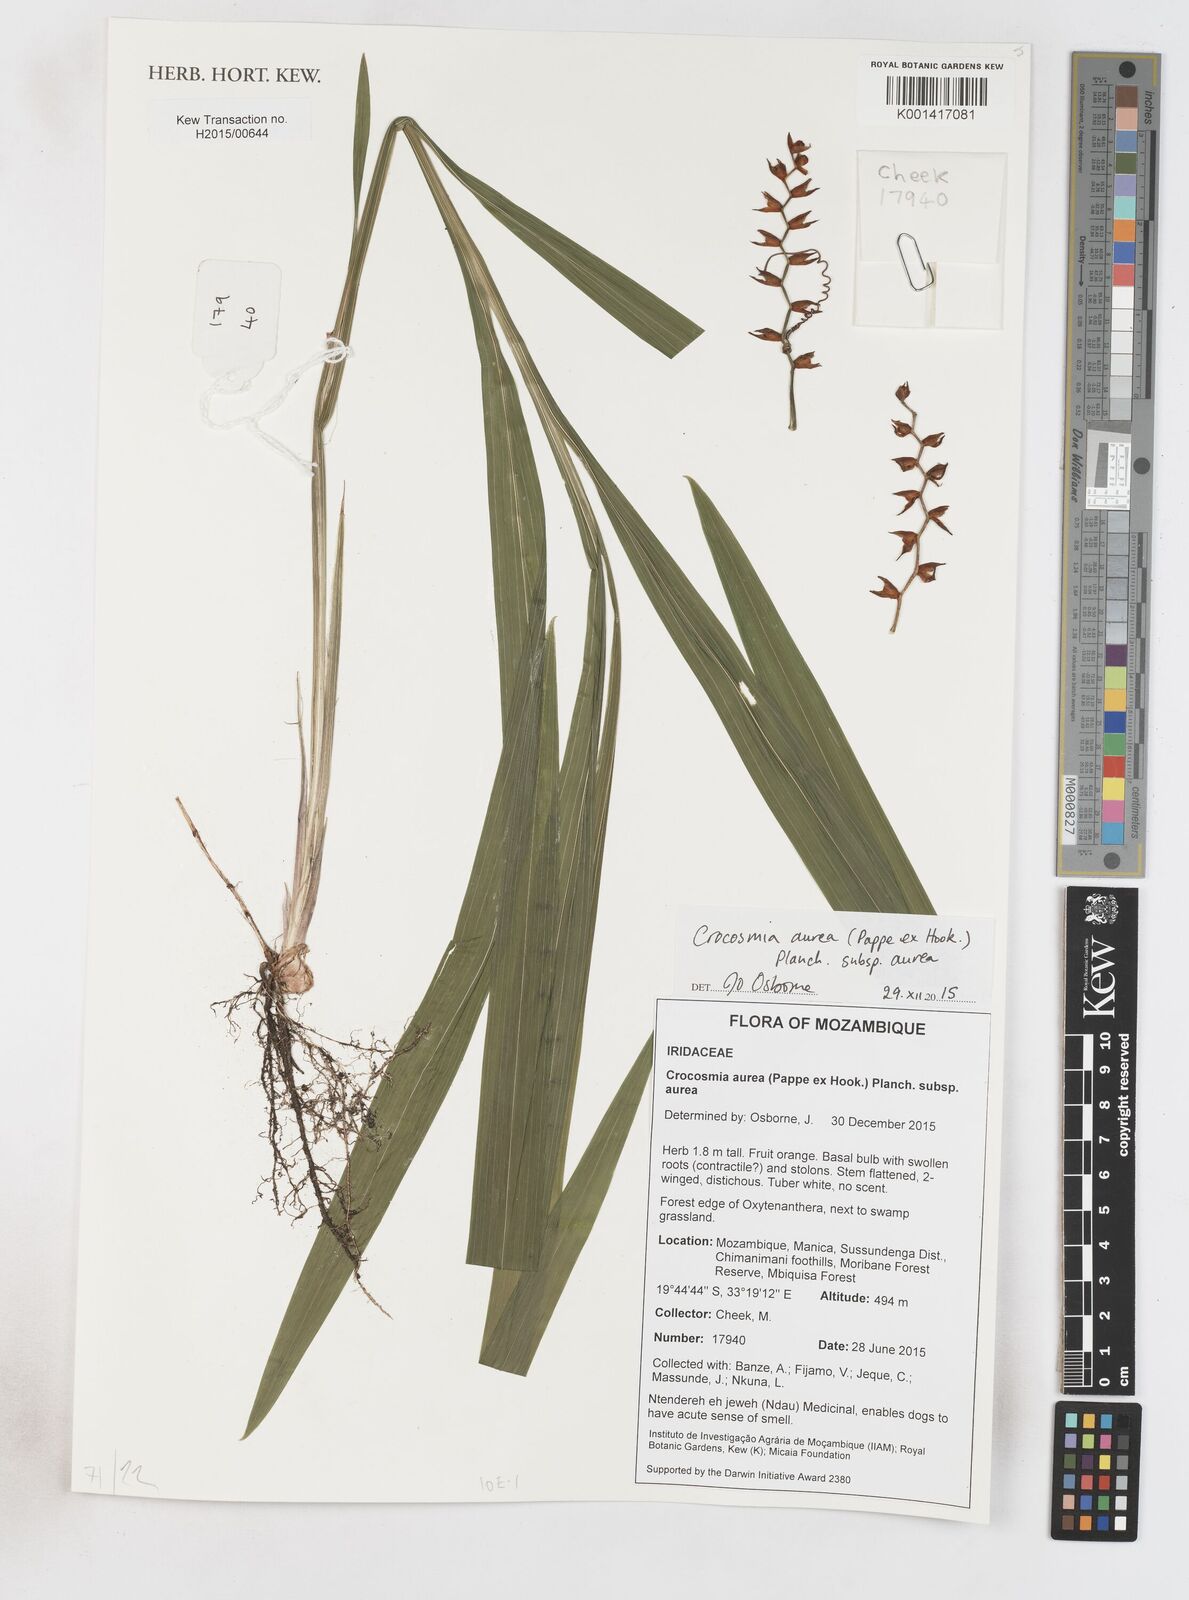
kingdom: Plantae
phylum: Tracheophyta
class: Liliopsida
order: Asparagales
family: Iridaceae
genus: Crocosmia
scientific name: Crocosmia aurea
